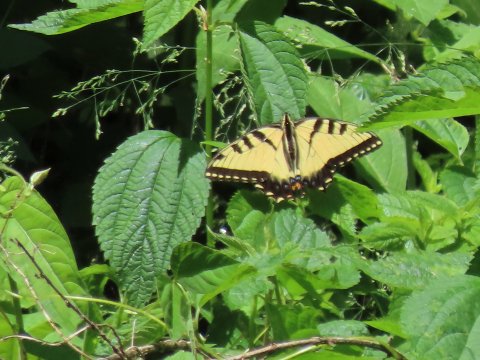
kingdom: Animalia
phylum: Arthropoda
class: Insecta
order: Lepidoptera
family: Papilionidae
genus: Pterourus
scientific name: Pterourus glaucus
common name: Eastern Tiger Swallowtail
